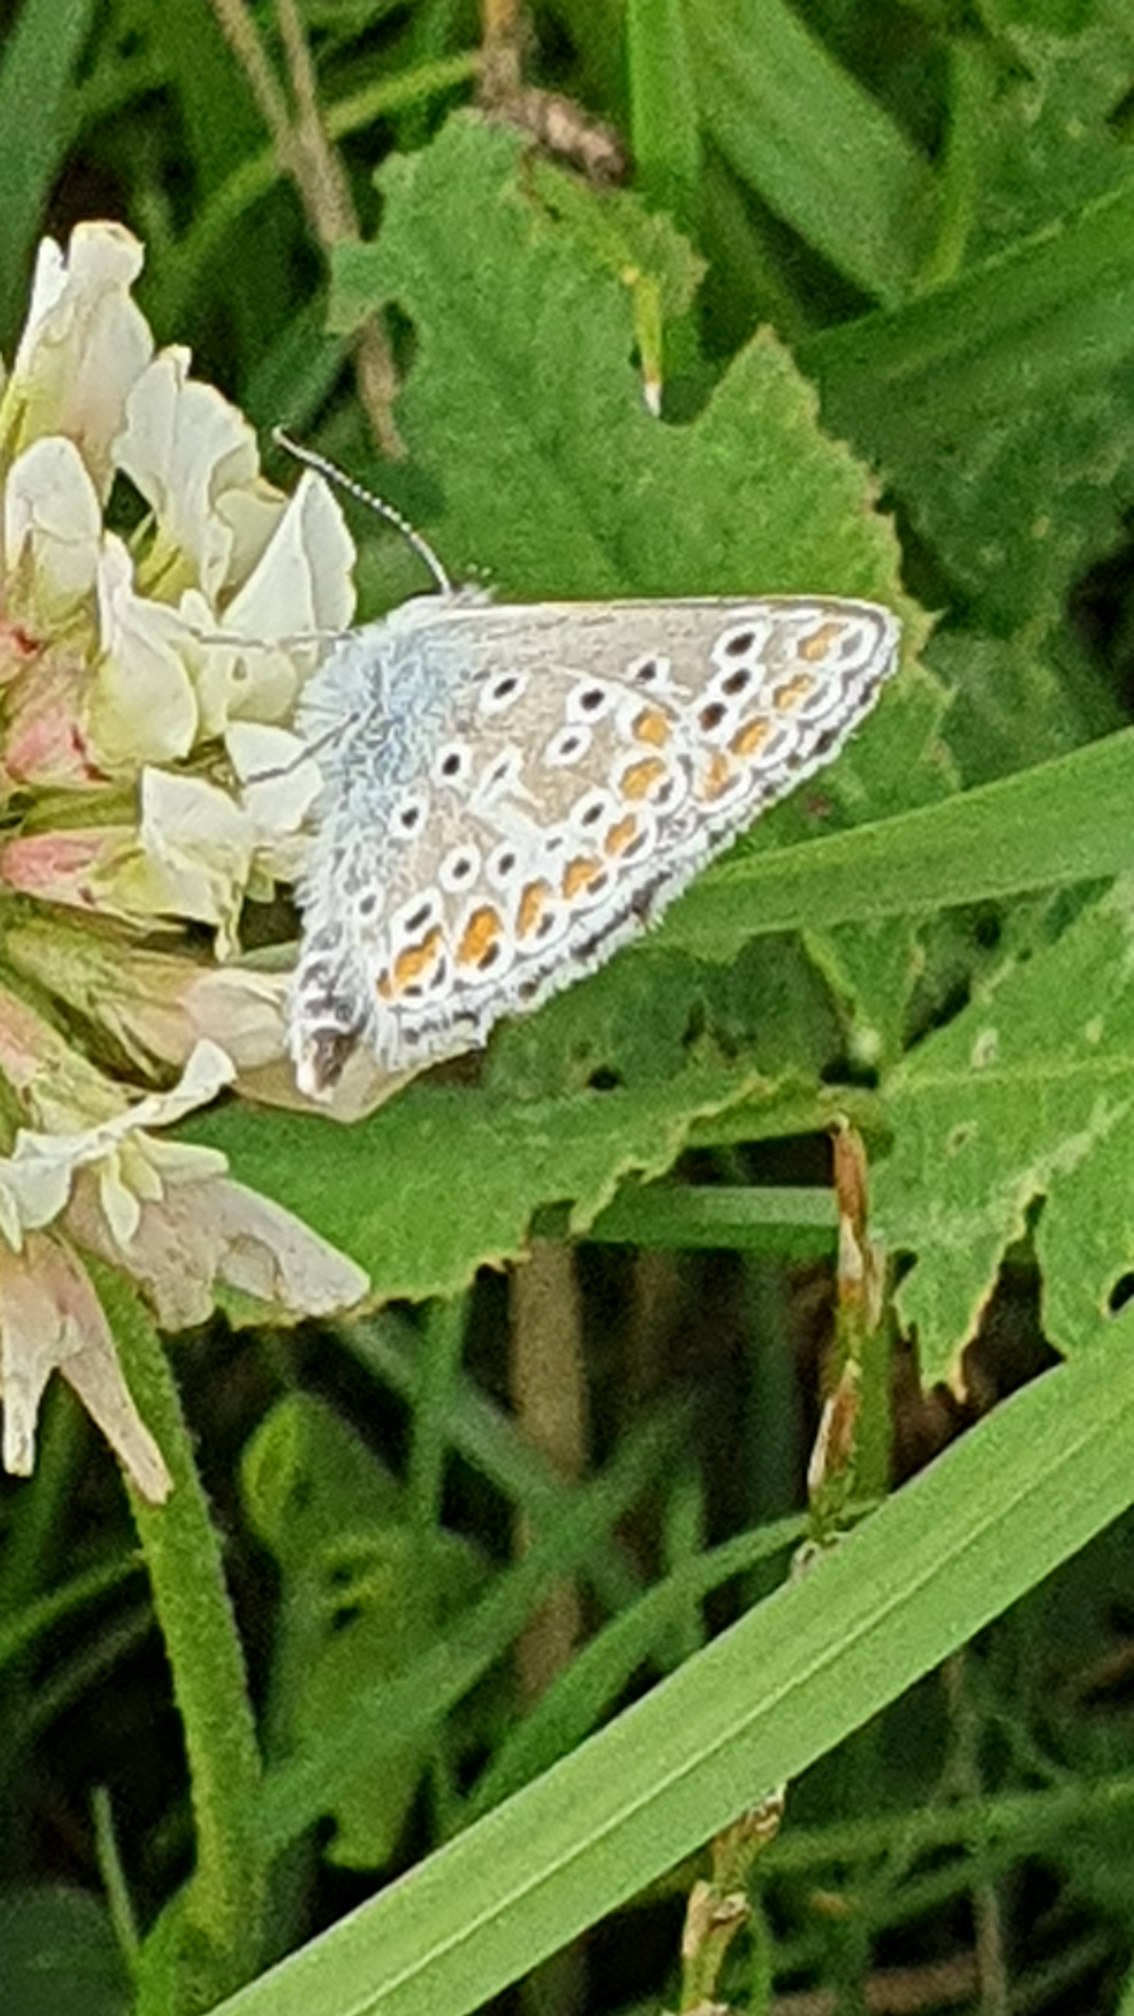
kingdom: Animalia
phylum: Arthropoda
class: Insecta
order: Lepidoptera
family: Lycaenidae
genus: Aricia
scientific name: Aricia agestis
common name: Rødplettet blåfugl
